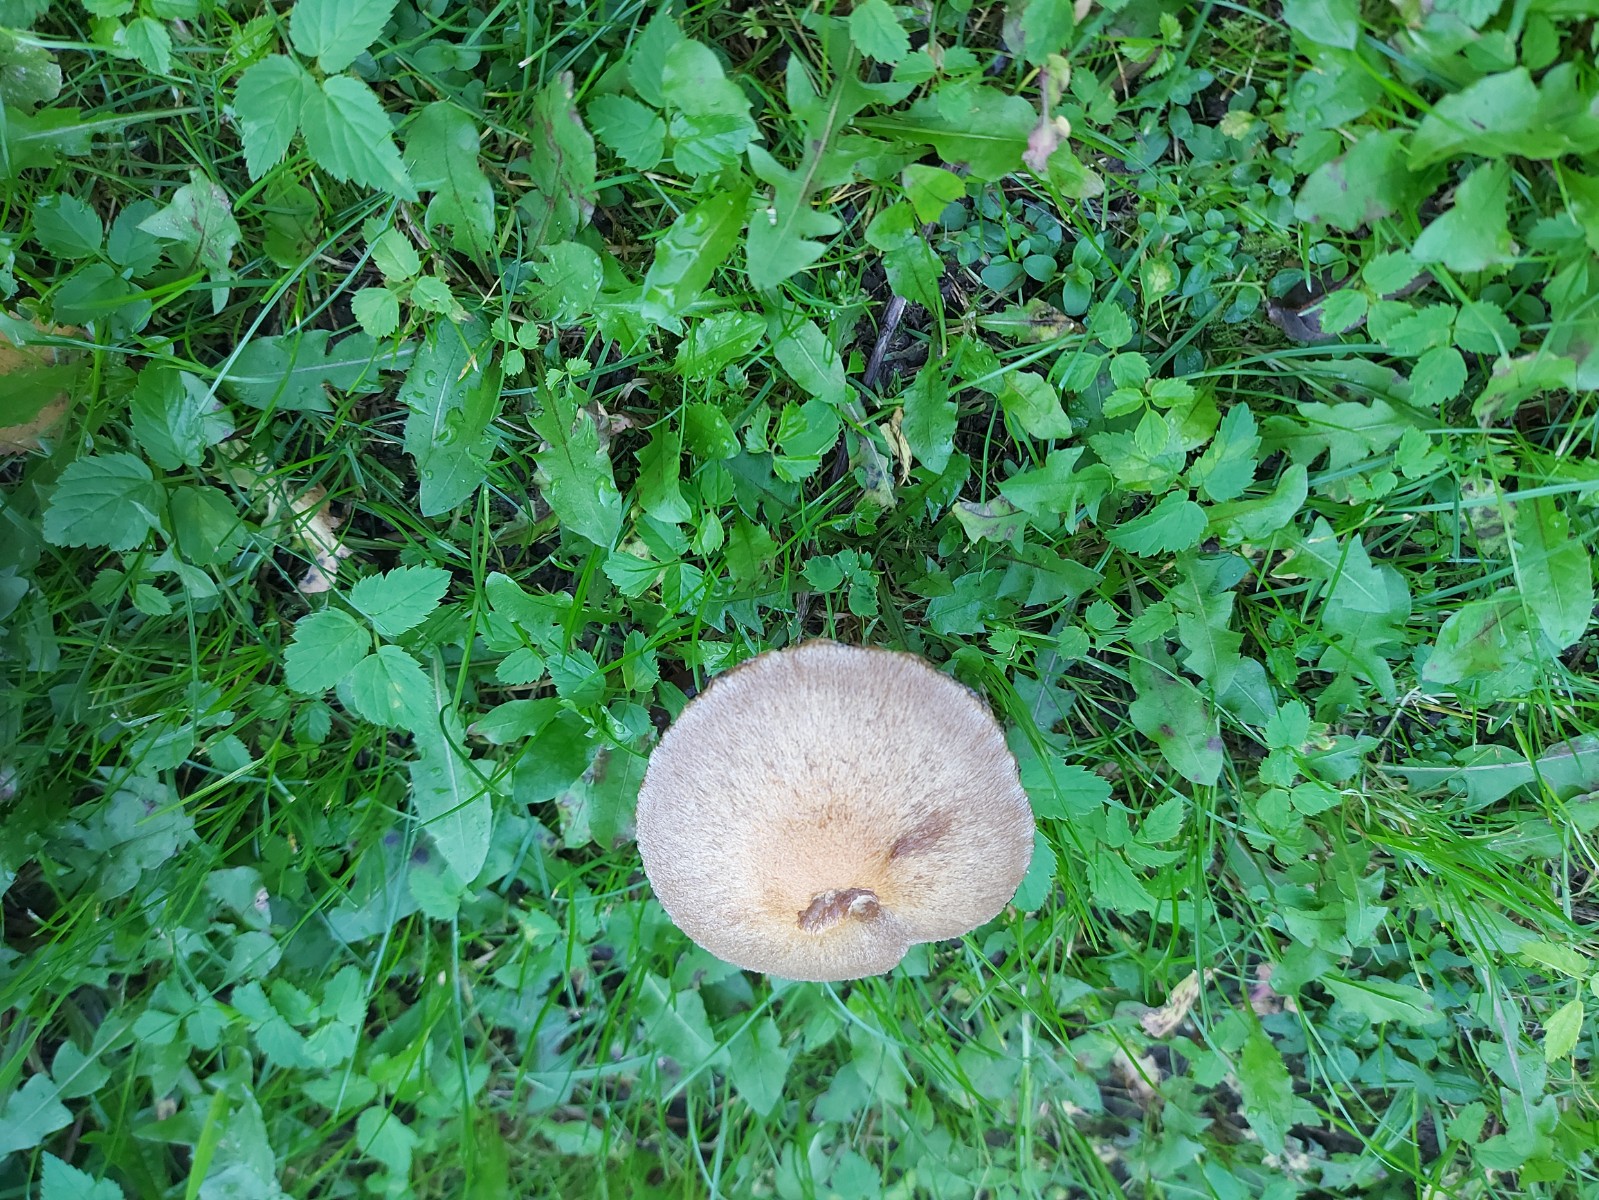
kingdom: Fungi
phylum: Basidiomycota
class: Agaricomycetes
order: Agaricales
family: Psathyrellaceae
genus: Lacrymaria
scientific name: Lacrymaria lacrymabunda
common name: grædende mørkhat
